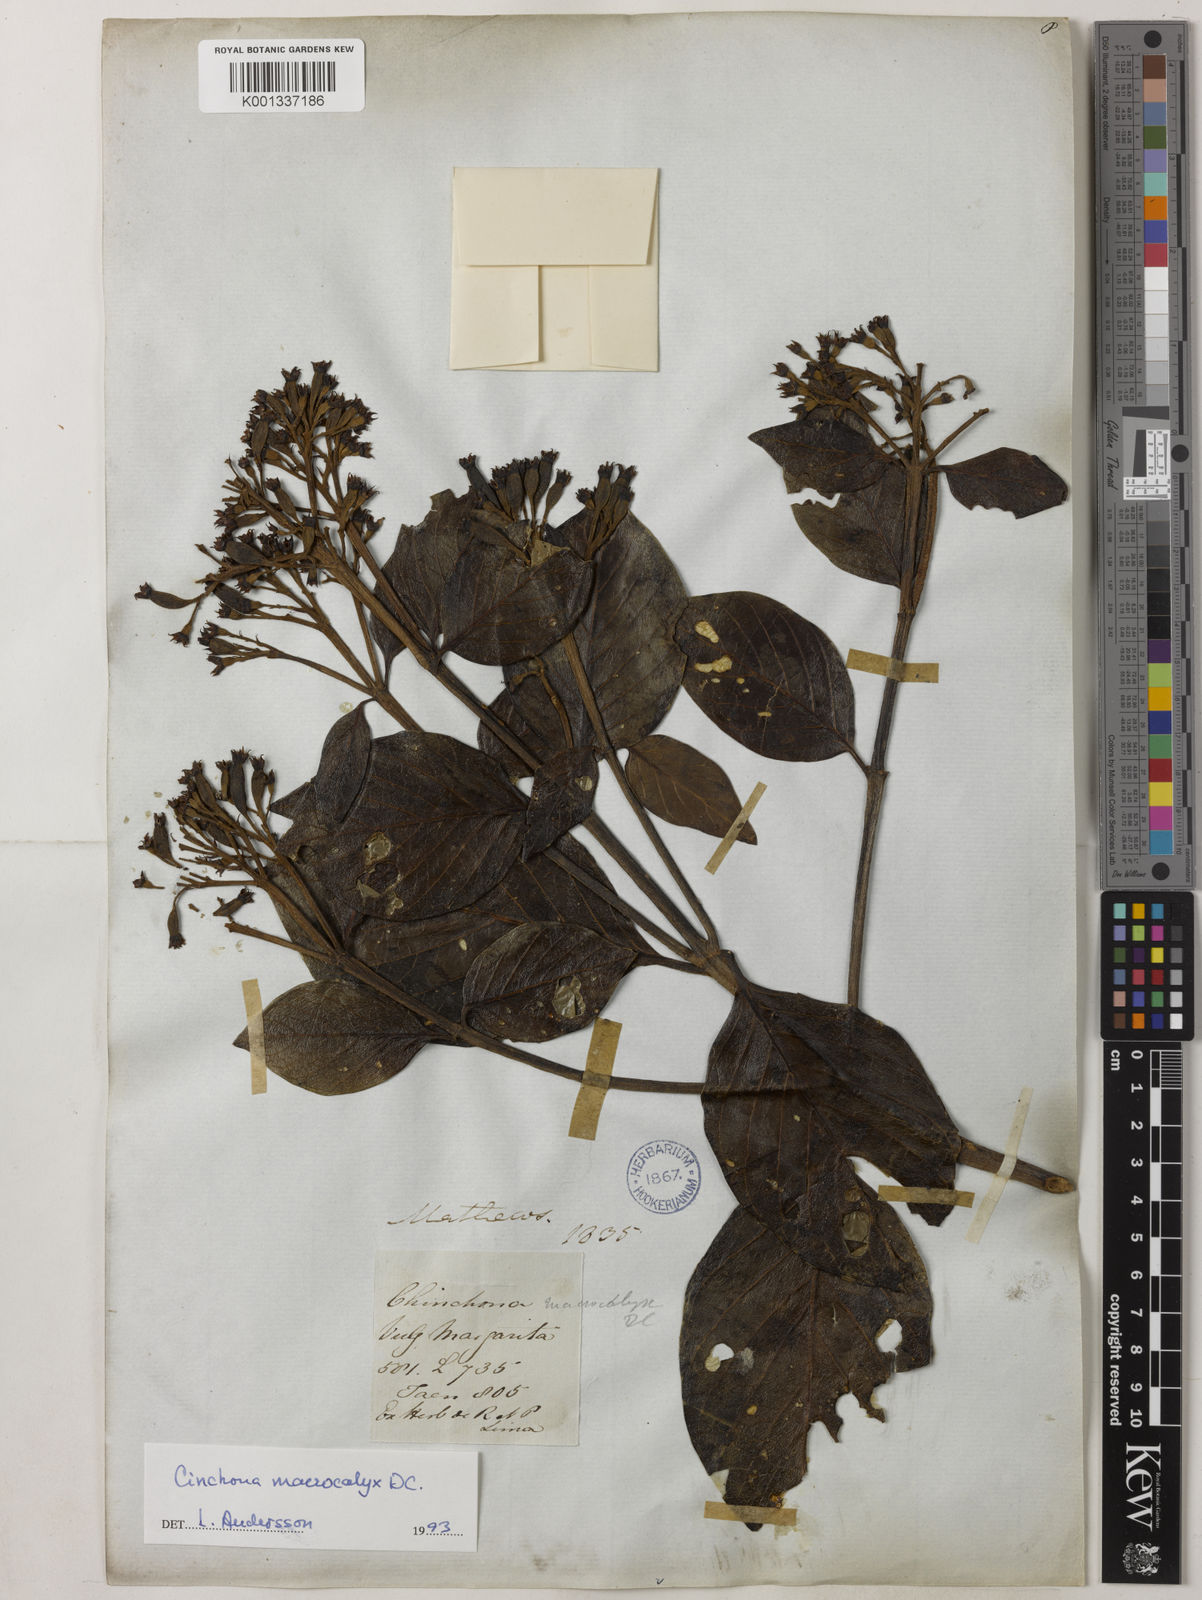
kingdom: Plantae
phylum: Tracheophyta
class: Magnoliopsida
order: Gentianales
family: Rubiaceae
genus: Cinchona
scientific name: Cinchona macrocalyx
